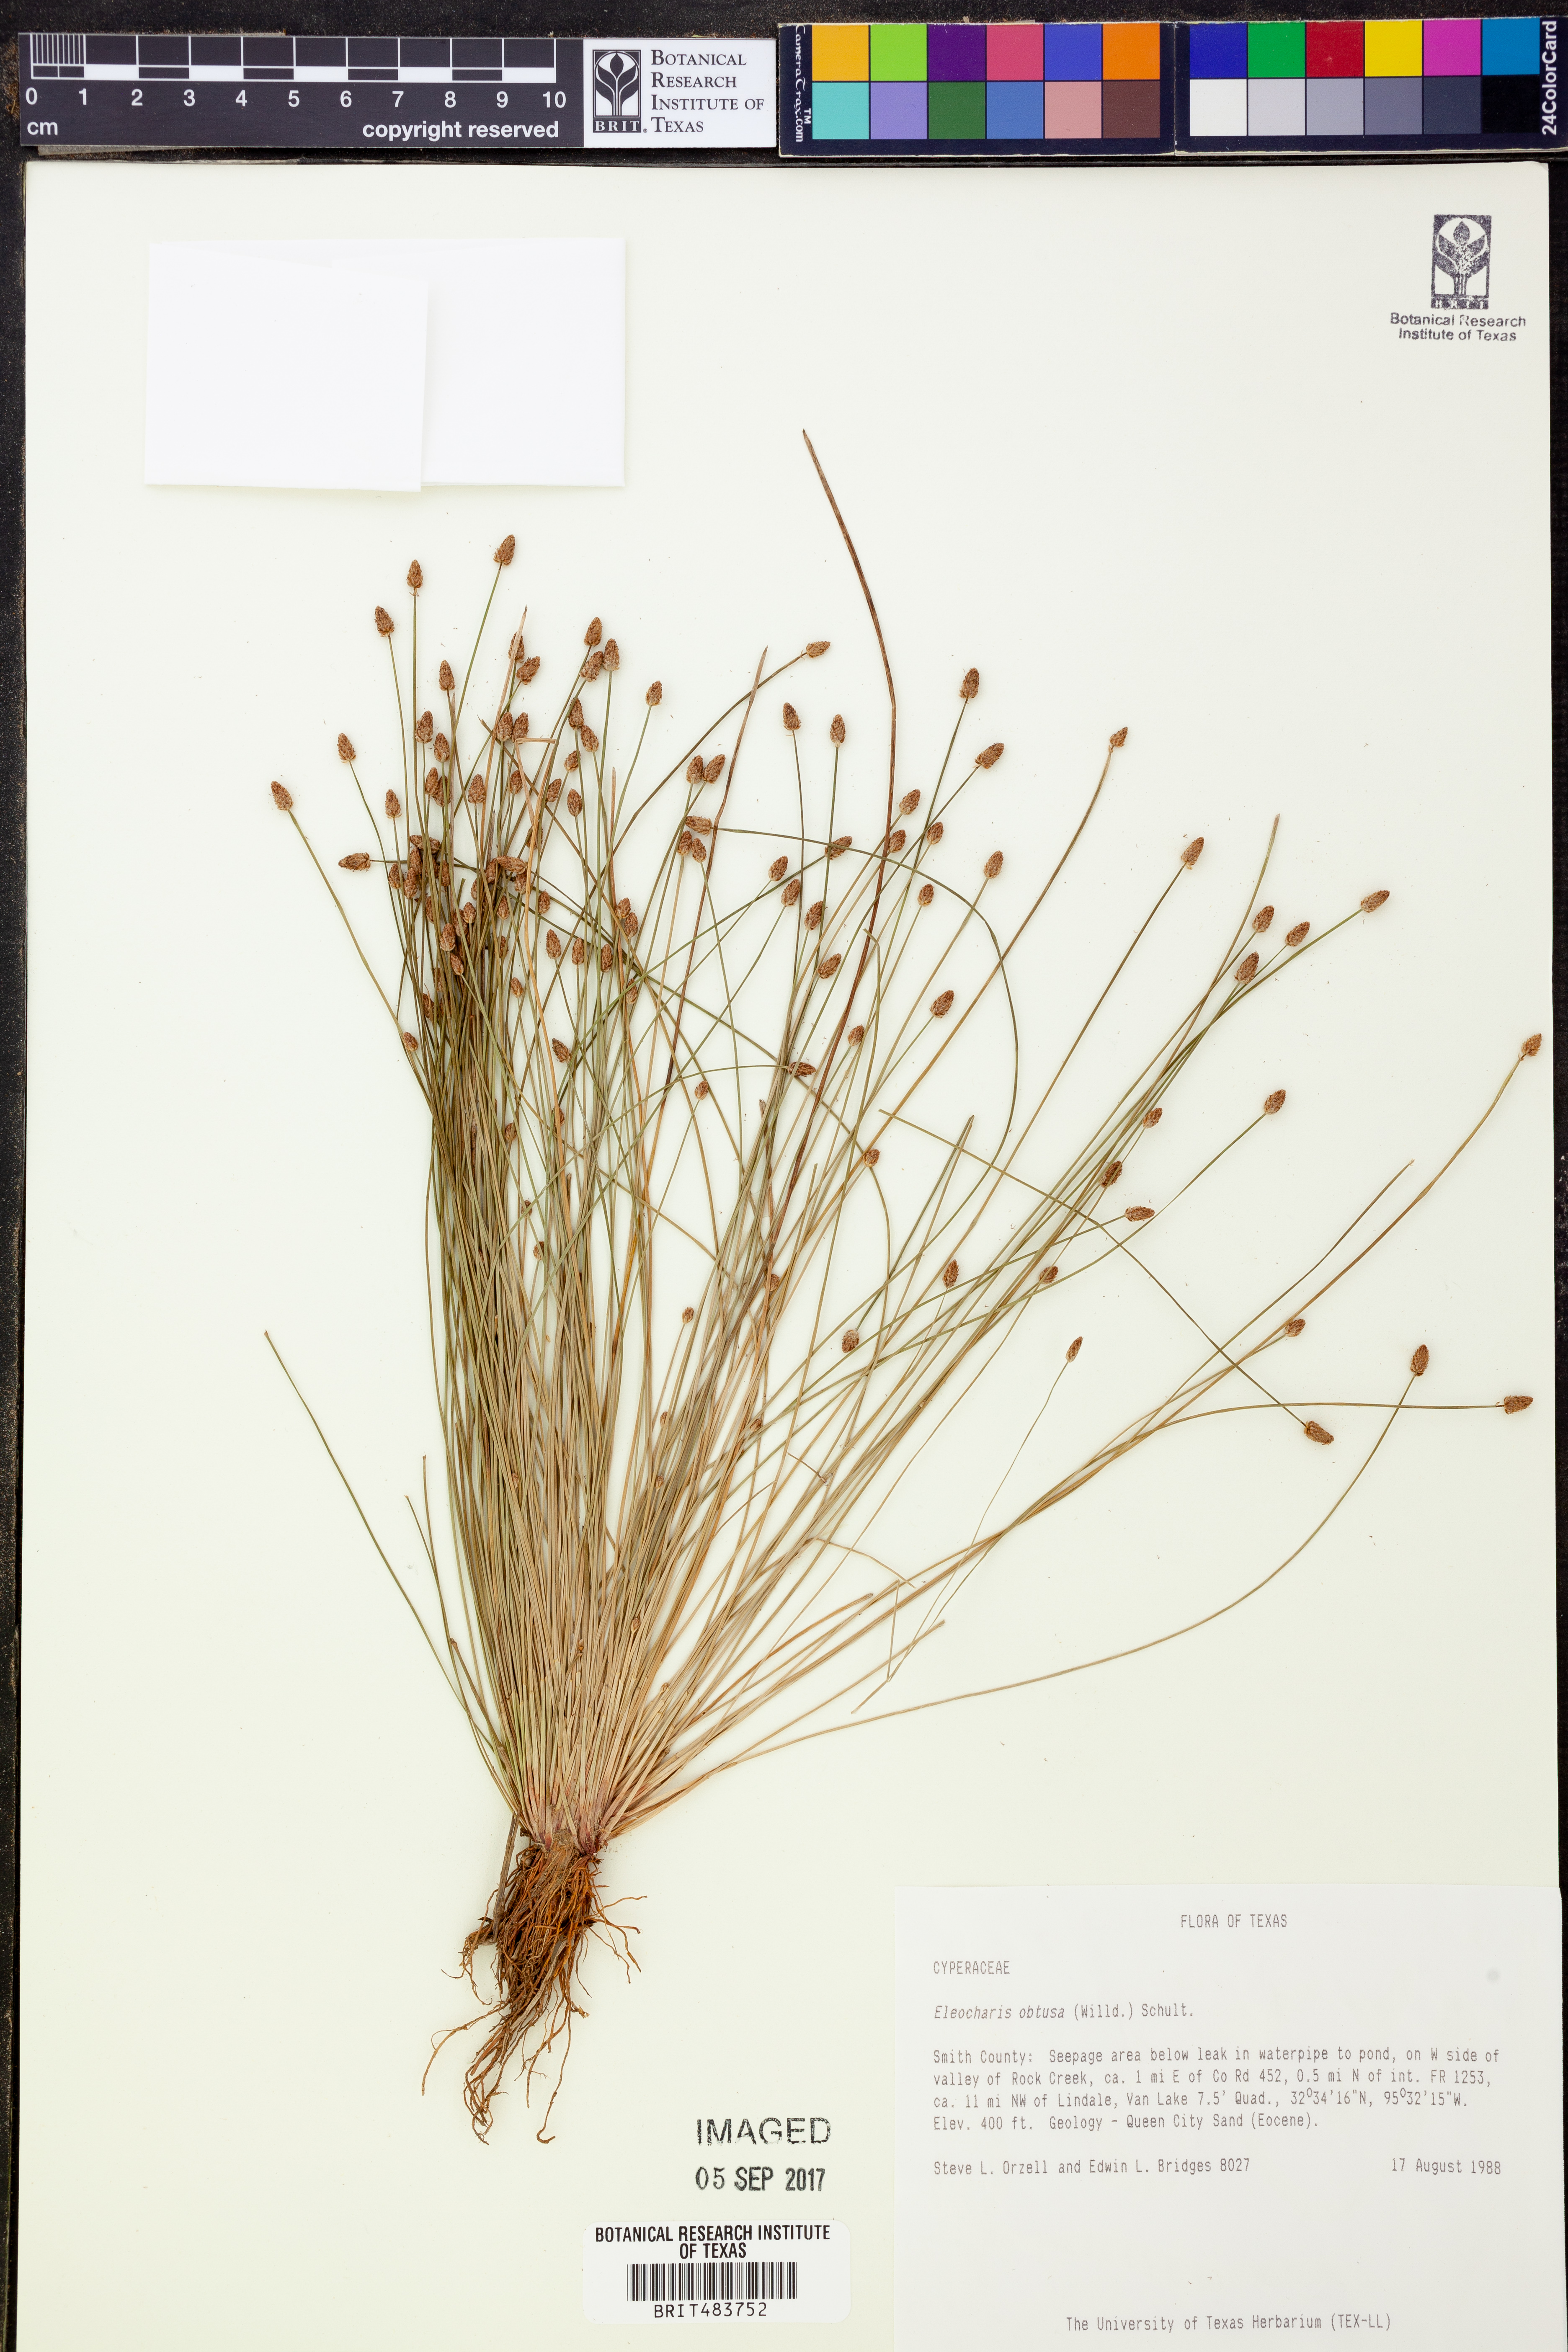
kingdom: Plantae
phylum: Tracheophyta
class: Liliopsida
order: Poales
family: Cyperaceae
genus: Eleocharis
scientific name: Eleocharis obtusa
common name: Blunt spikerush
